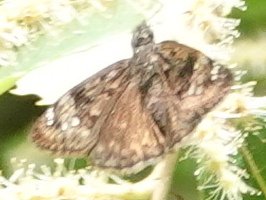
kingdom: Animalia
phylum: Arthropoda
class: Insecta
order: Lepidoptera
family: Hesperiidae
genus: Gesta
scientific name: Gesta
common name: Horace's Duskywing
